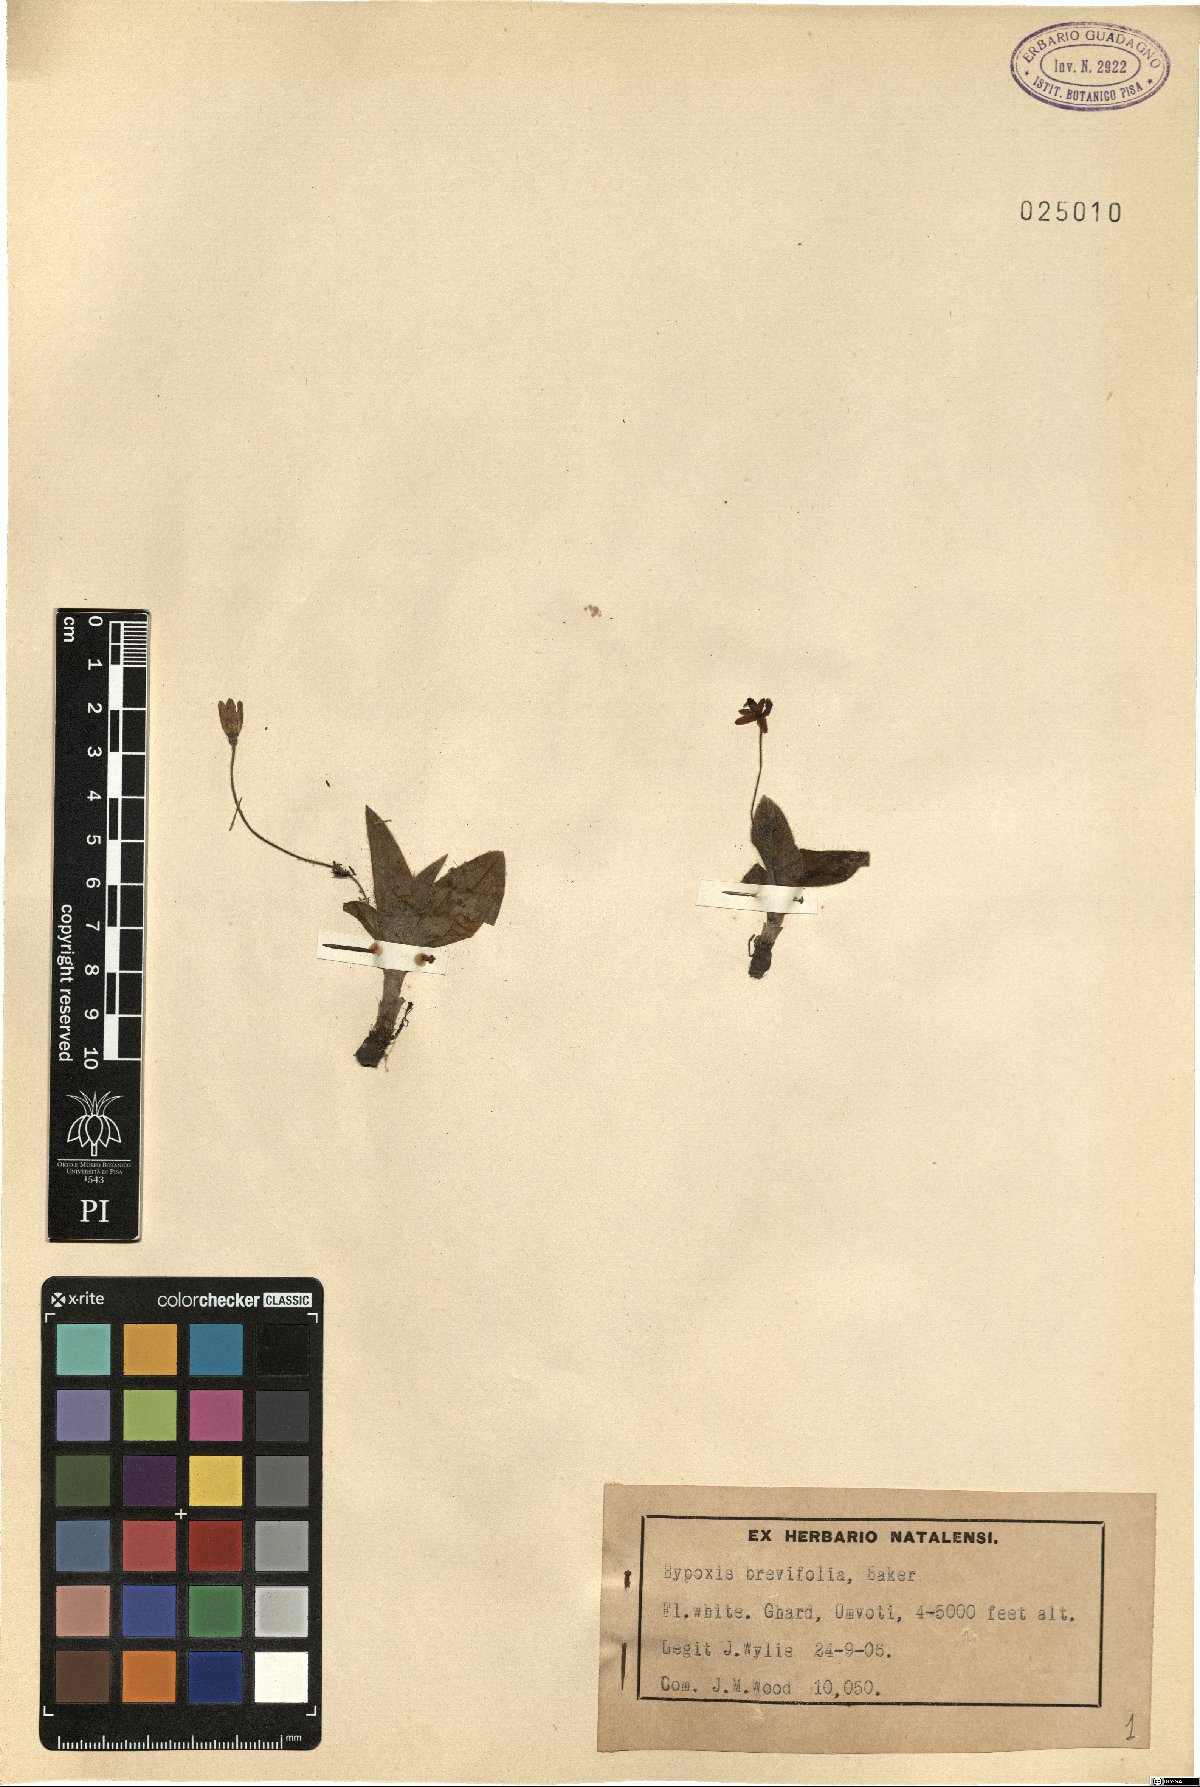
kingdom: Plantae
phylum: Tracheophyta
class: Liliopsida
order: Asparagales
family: Hypoxidaceae
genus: Hypoxis
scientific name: Hypoxis parvula
